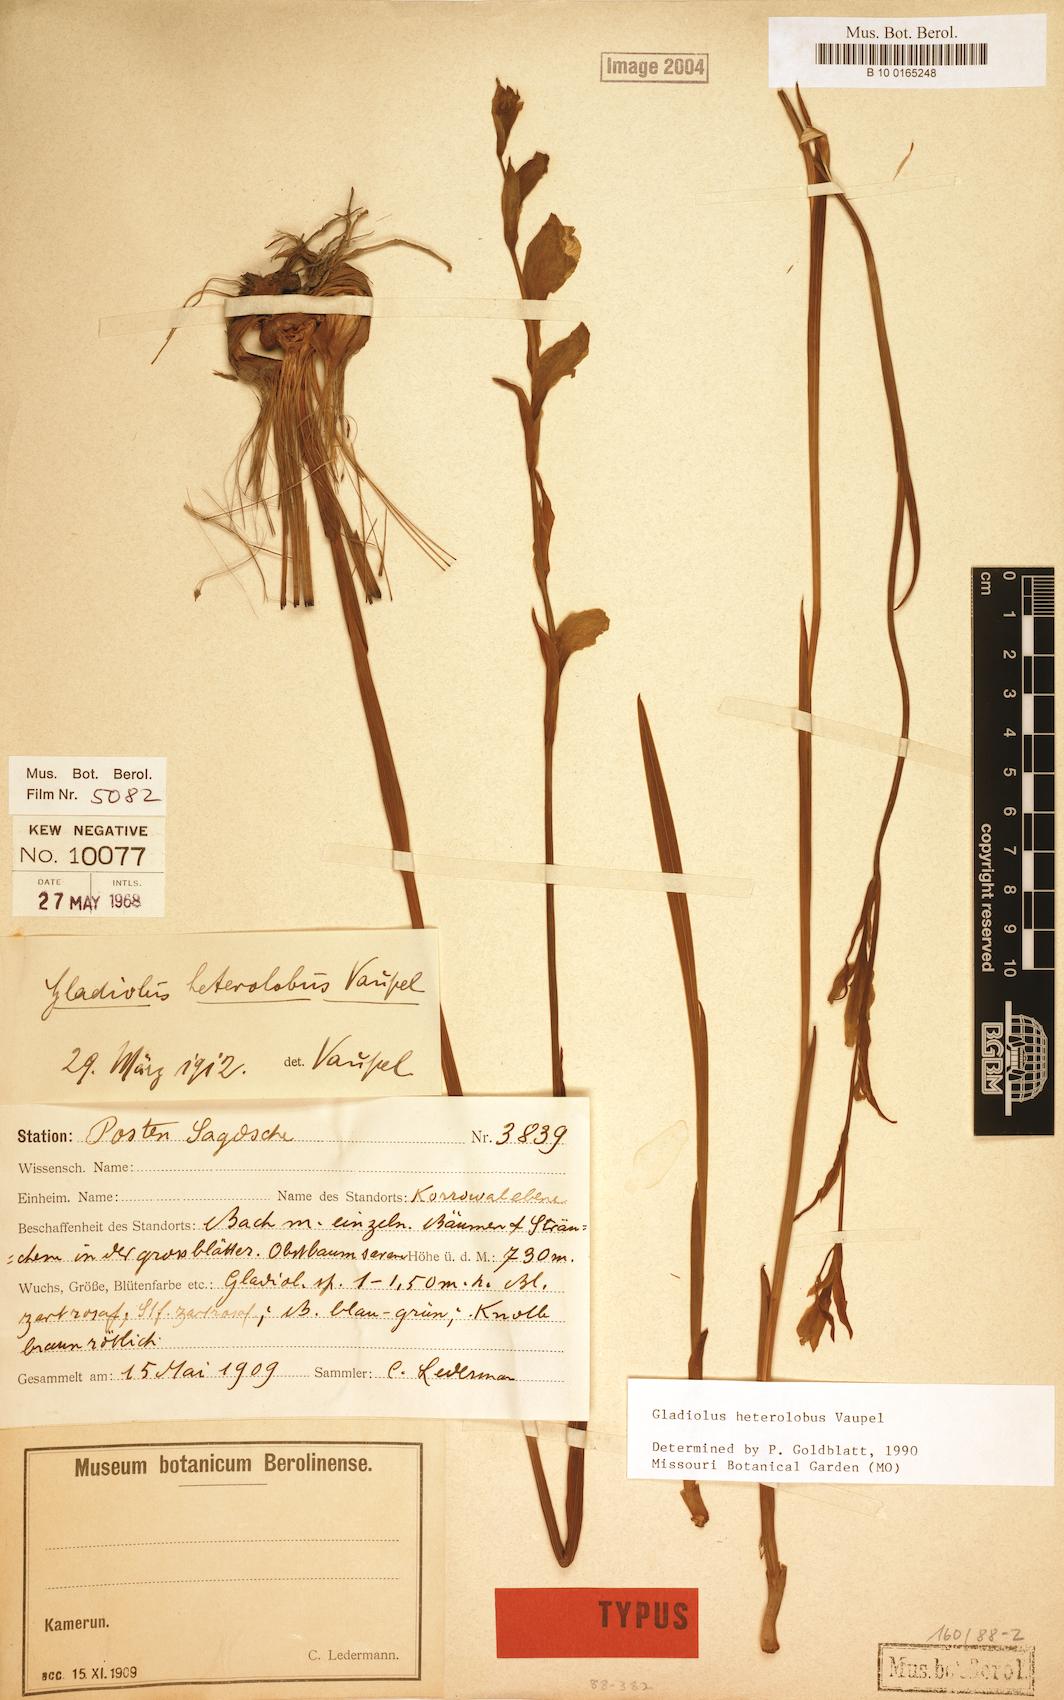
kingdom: Plantae
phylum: Tracheophyta
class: Liliopsida
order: Asparagales
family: Iridaceae
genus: Gladiolus
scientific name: Gladiolus roseolus
